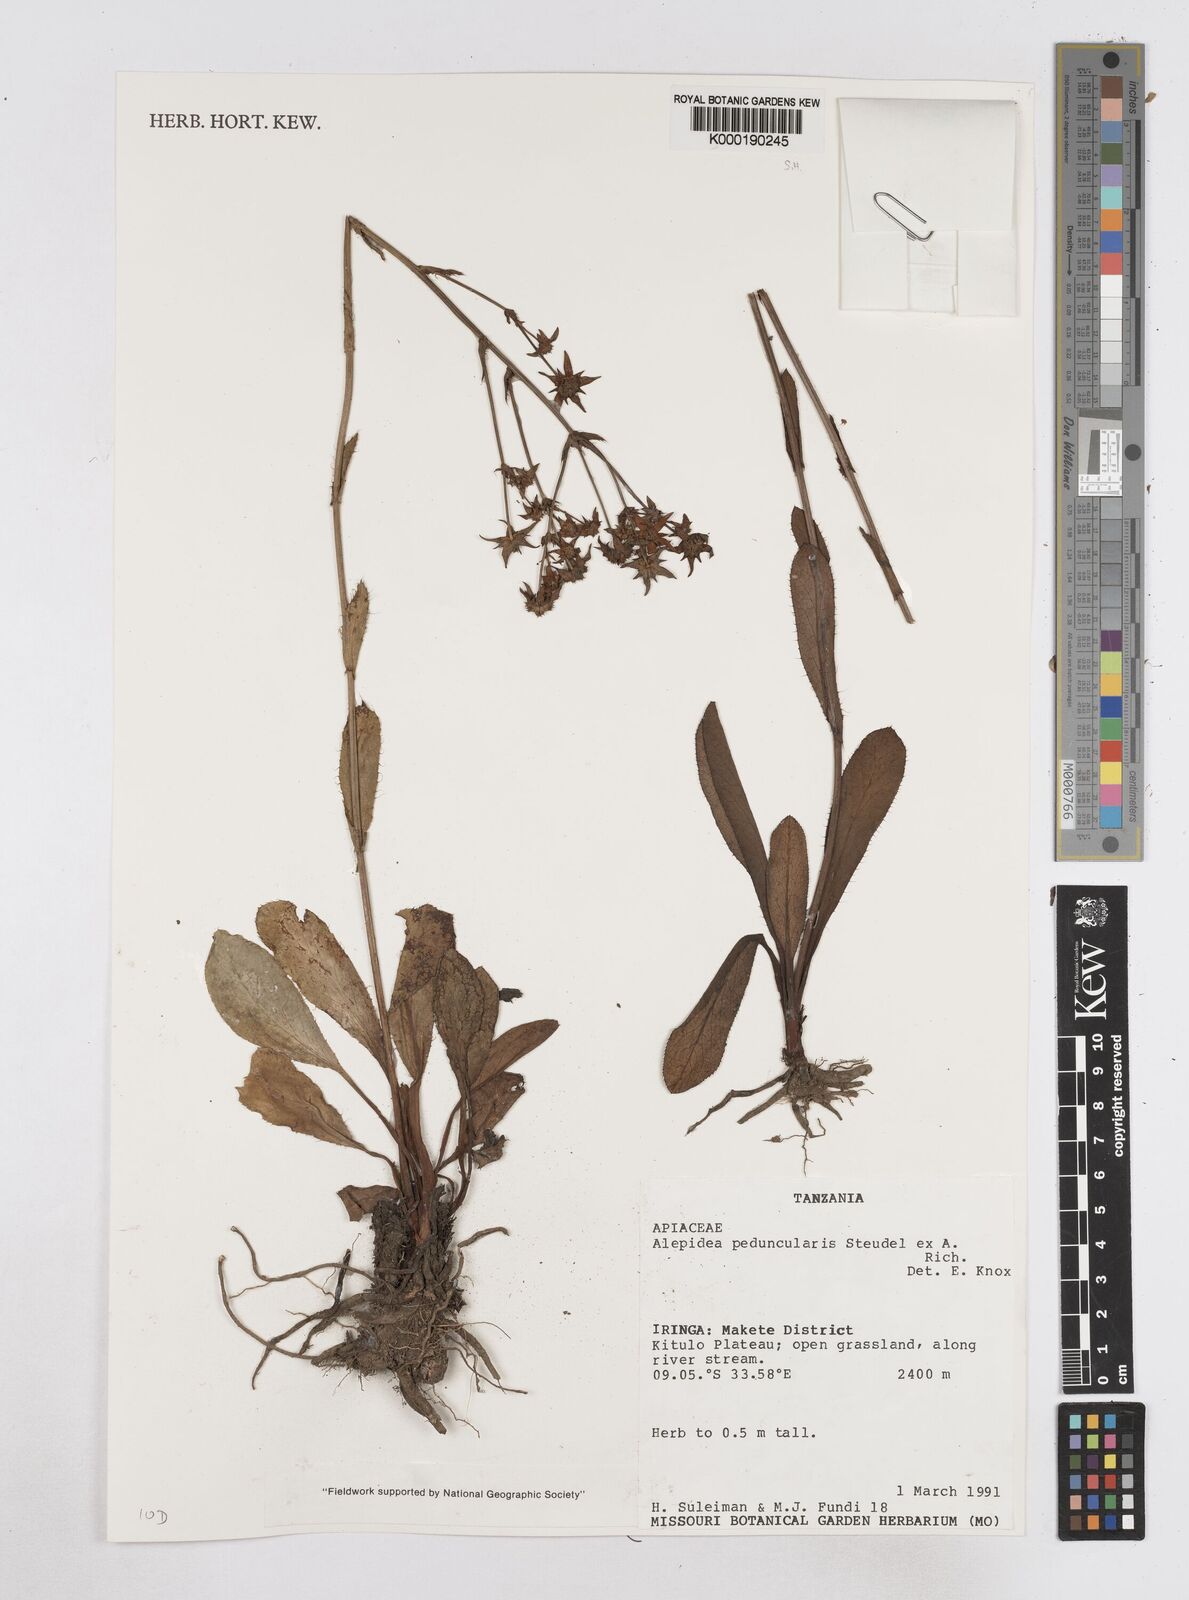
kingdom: Plantae
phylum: Tracheophyta
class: Magnoliopsida
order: Apiales
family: Apiaceae
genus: Alepidea
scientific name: Alepidea peduncularis
